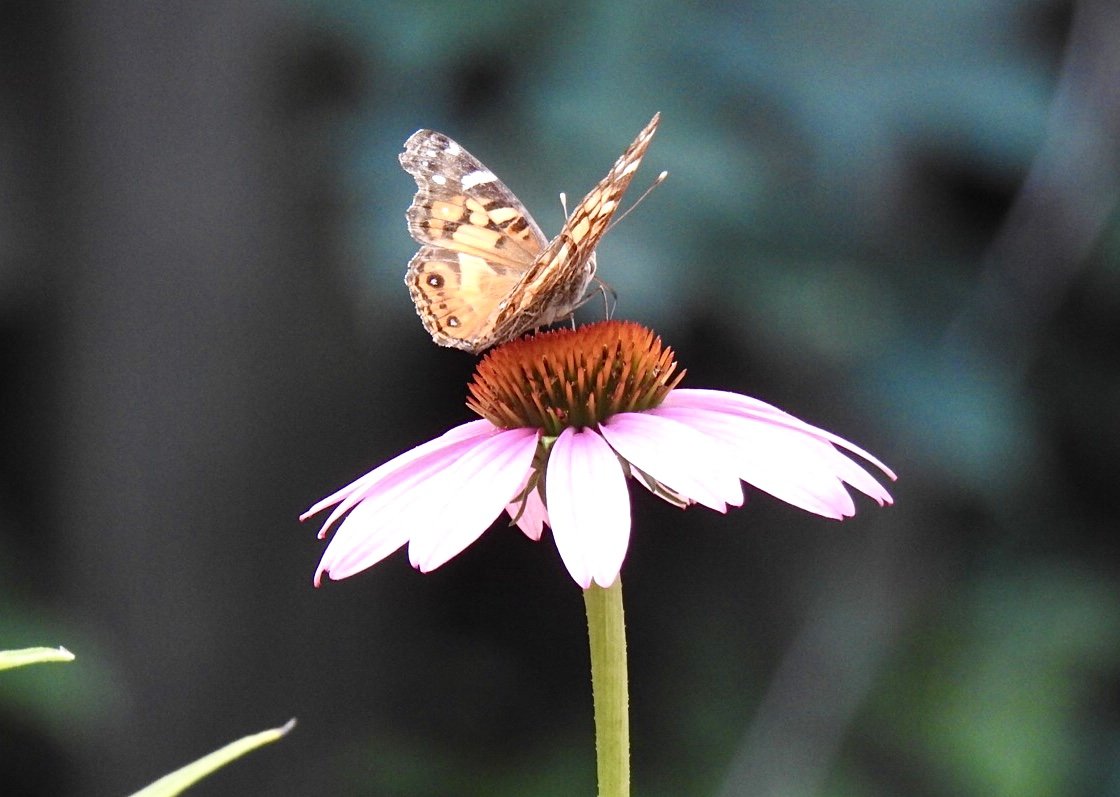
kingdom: Animalia
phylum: Arthropoda
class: Insecta
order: Lepidoptera
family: Nymphalidae
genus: Vanessa
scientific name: Vanessa virginiensis
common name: American Lady
